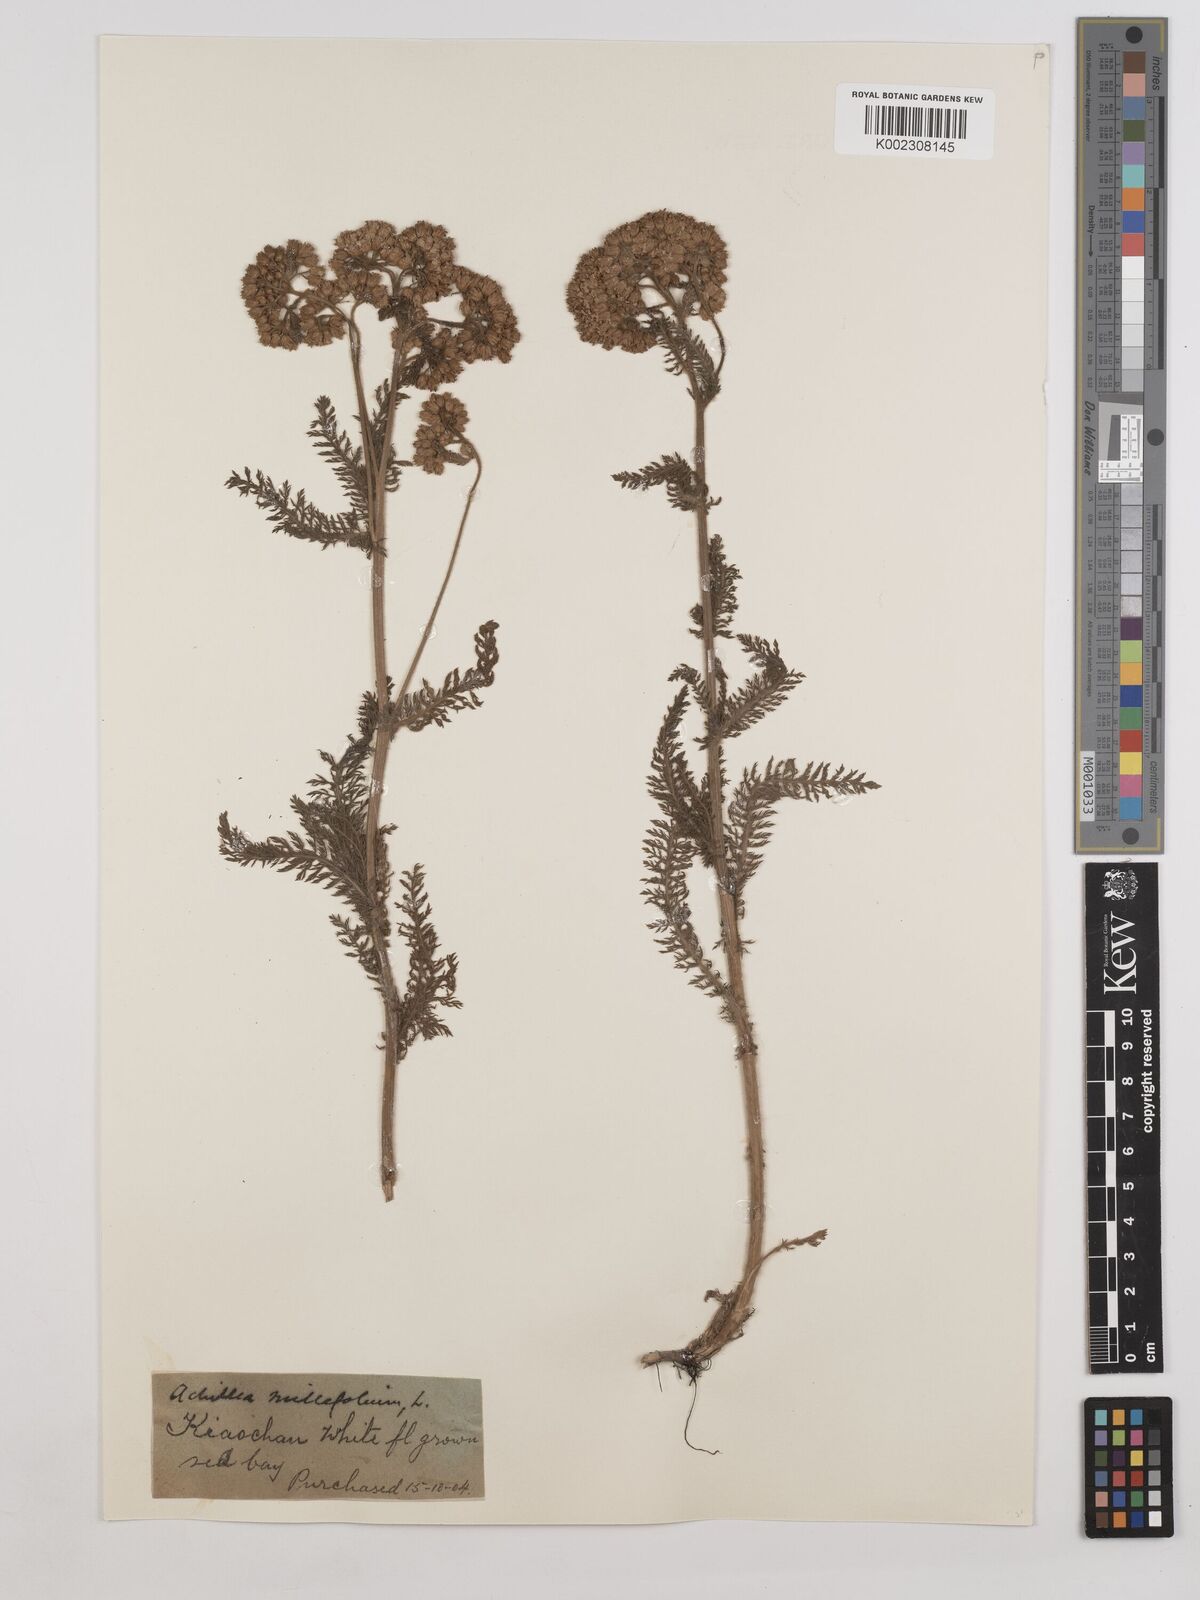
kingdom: Plantae
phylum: Tracheophyta
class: Magnoliopsida
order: Asterales
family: Asteraceae
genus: Achillea
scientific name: Achillea millefolium
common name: Yarrow
